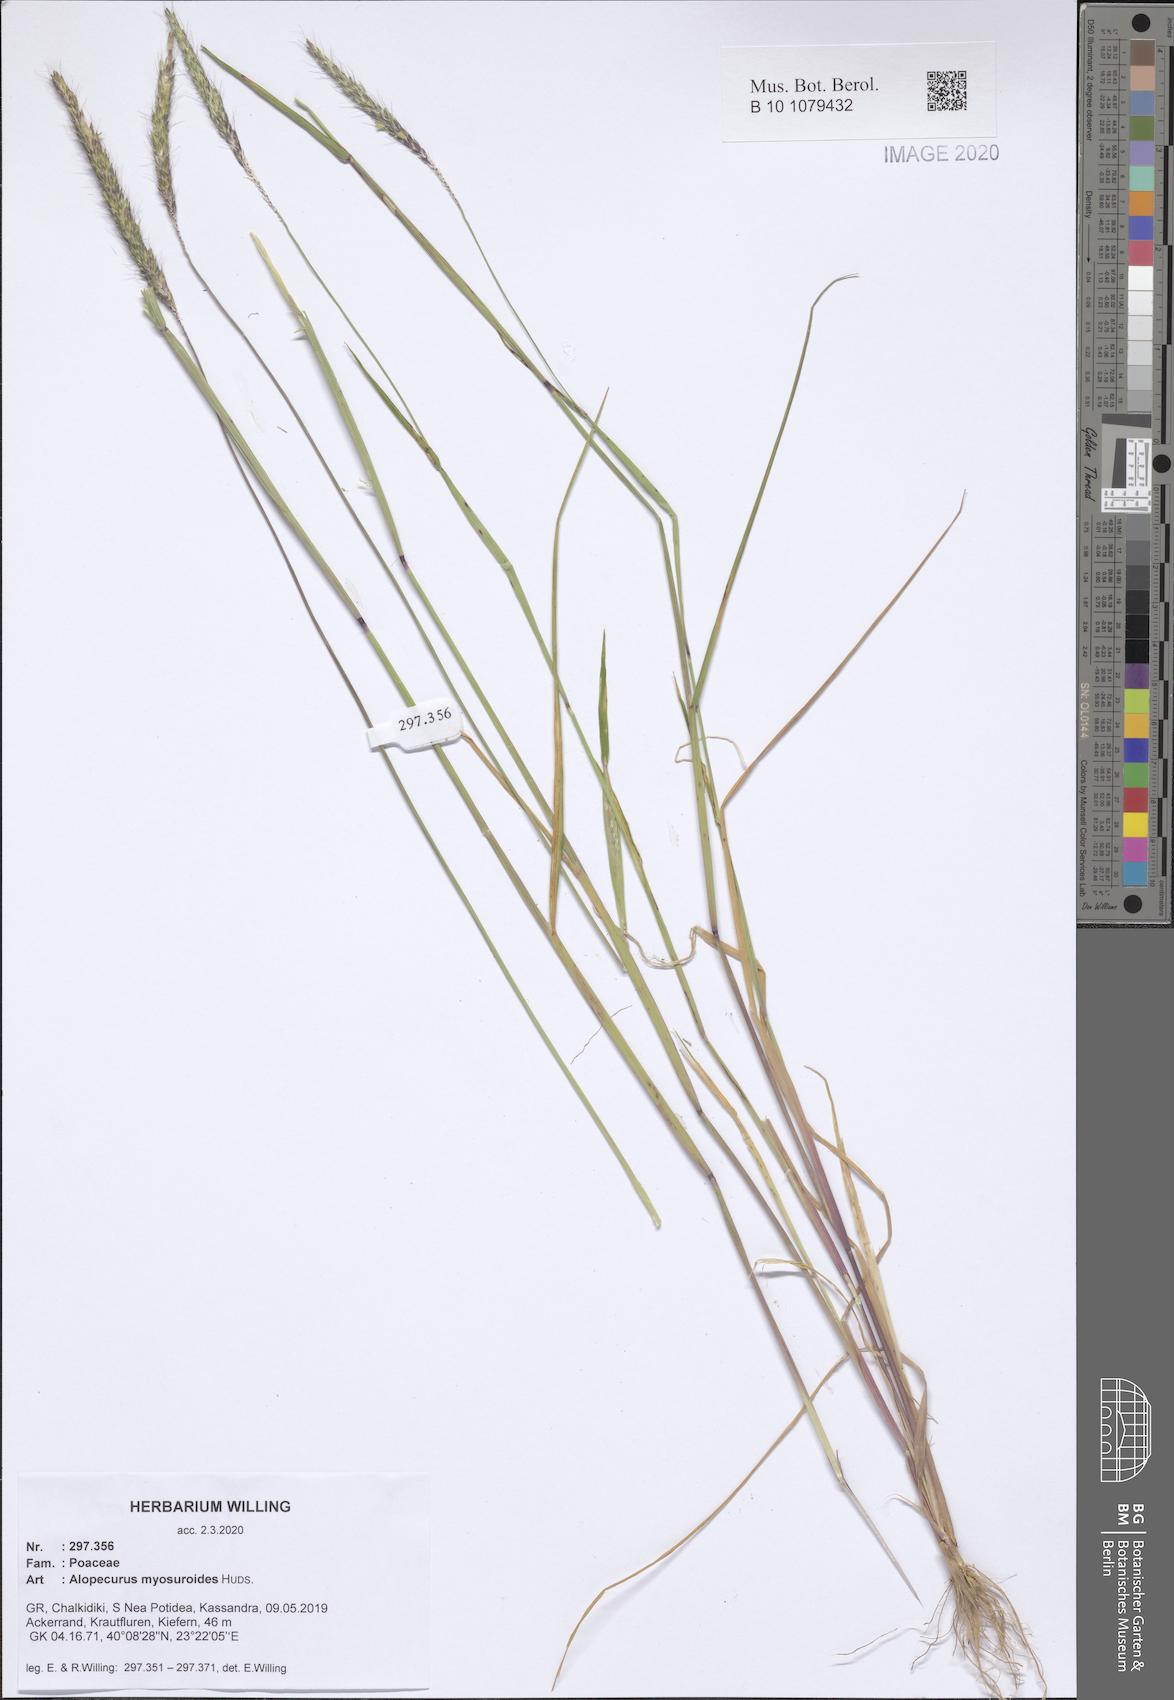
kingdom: Plantae
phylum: Tracheophyta
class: Liliopsida
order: Poales
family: Poaceae
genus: Alopecurus
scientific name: Alopecurus myosuroides
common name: Black-grass
